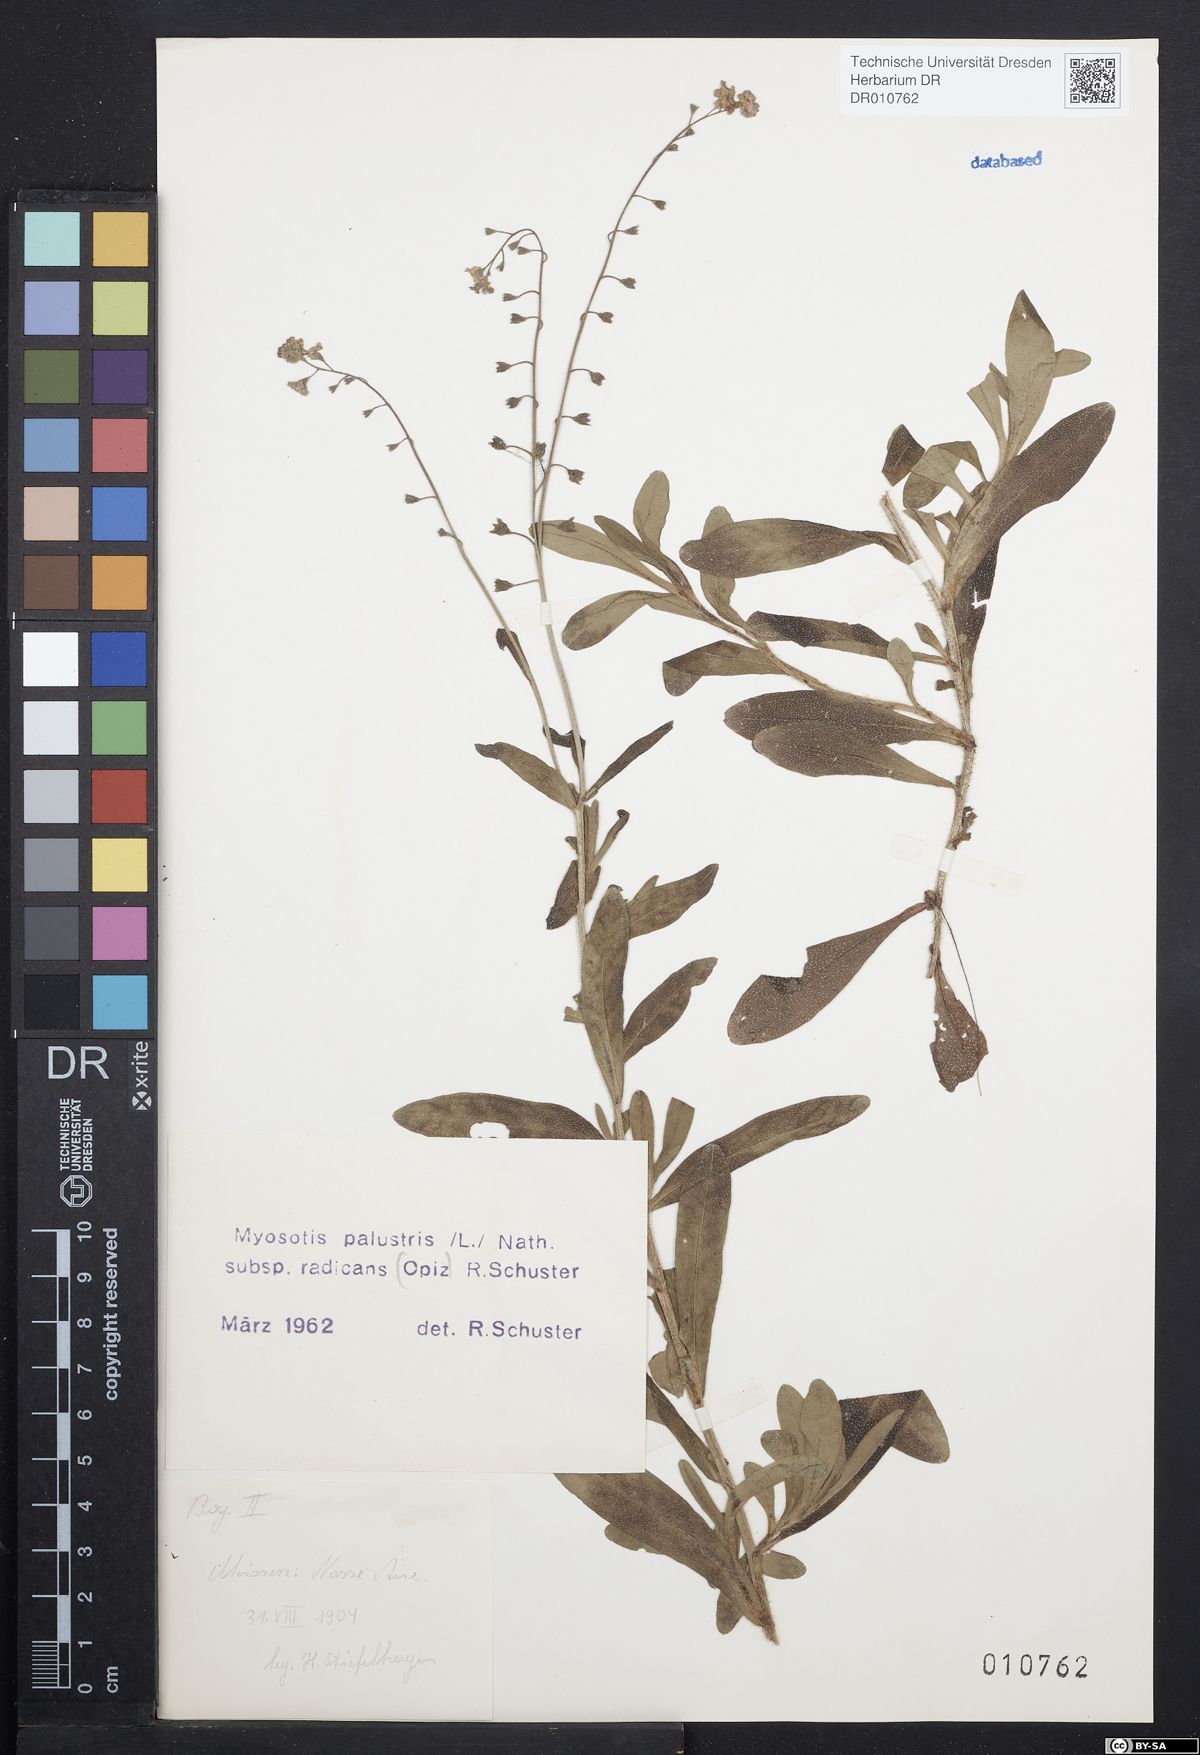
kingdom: Plantae
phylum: Tracheophyta
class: Magnoliopsida
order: Boraginales
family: Boraginaceae
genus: Myosotis
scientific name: Myosotis scorpioides
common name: Water forget-me-not
